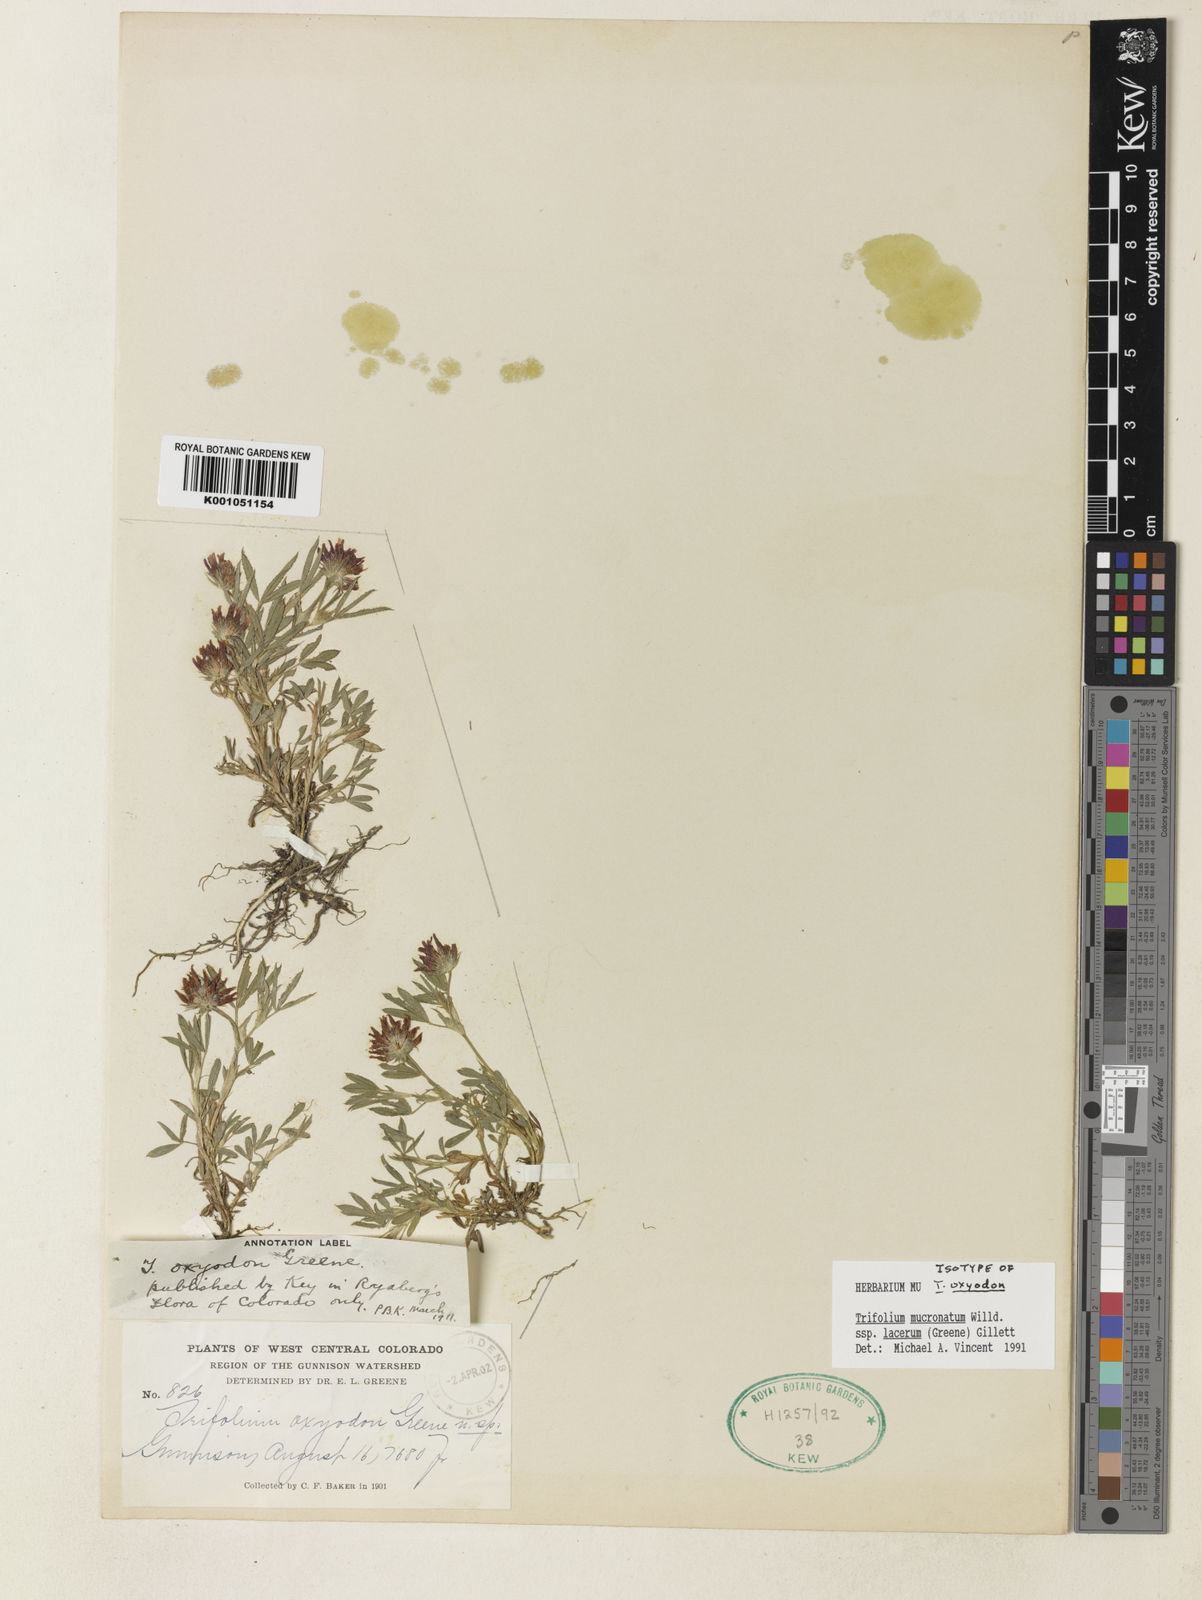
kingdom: Plantae
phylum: Tracheophyta
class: Magnoliopsida
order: Fabales
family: Fabaceae
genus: Trifolium
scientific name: Trifolium wormskioldii
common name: Springbank clover
